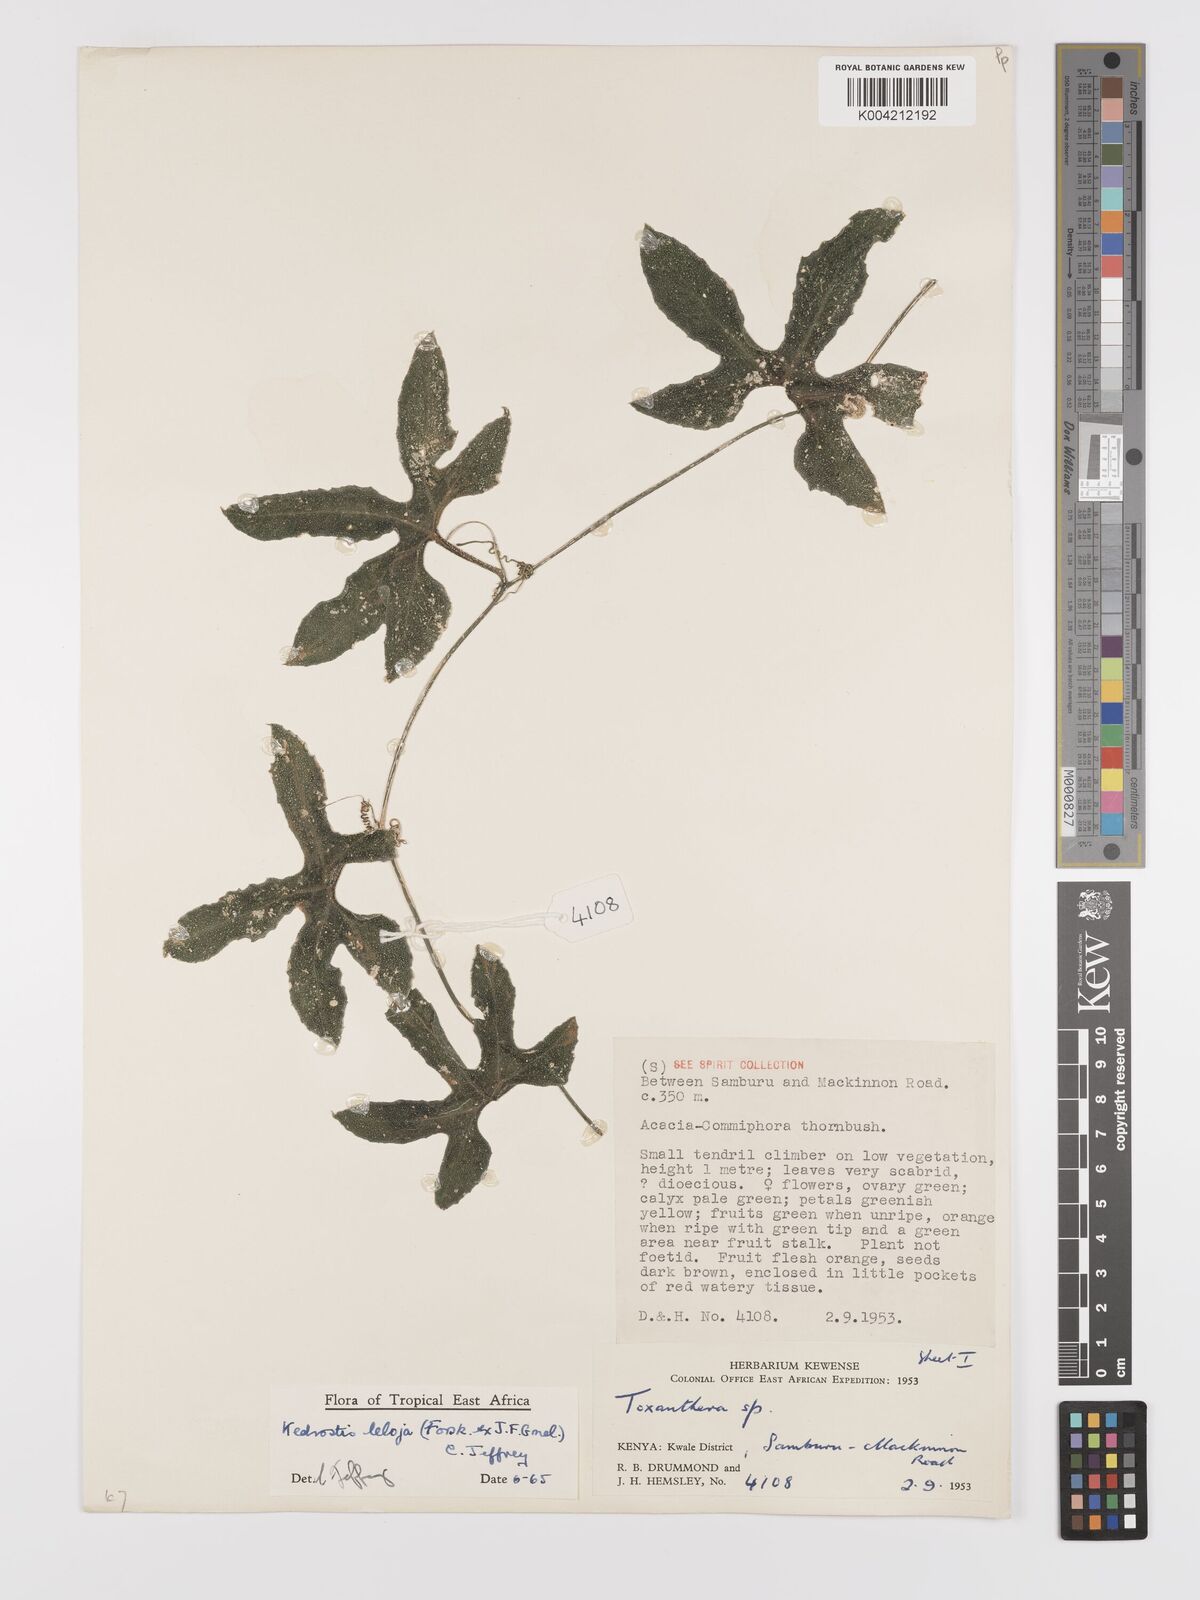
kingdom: Plantae
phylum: Tracheophyta
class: Magnoliopsida
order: Cucurbitales
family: Cucurbitaceae
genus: Kedrostis
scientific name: Kedrostis abdallae
